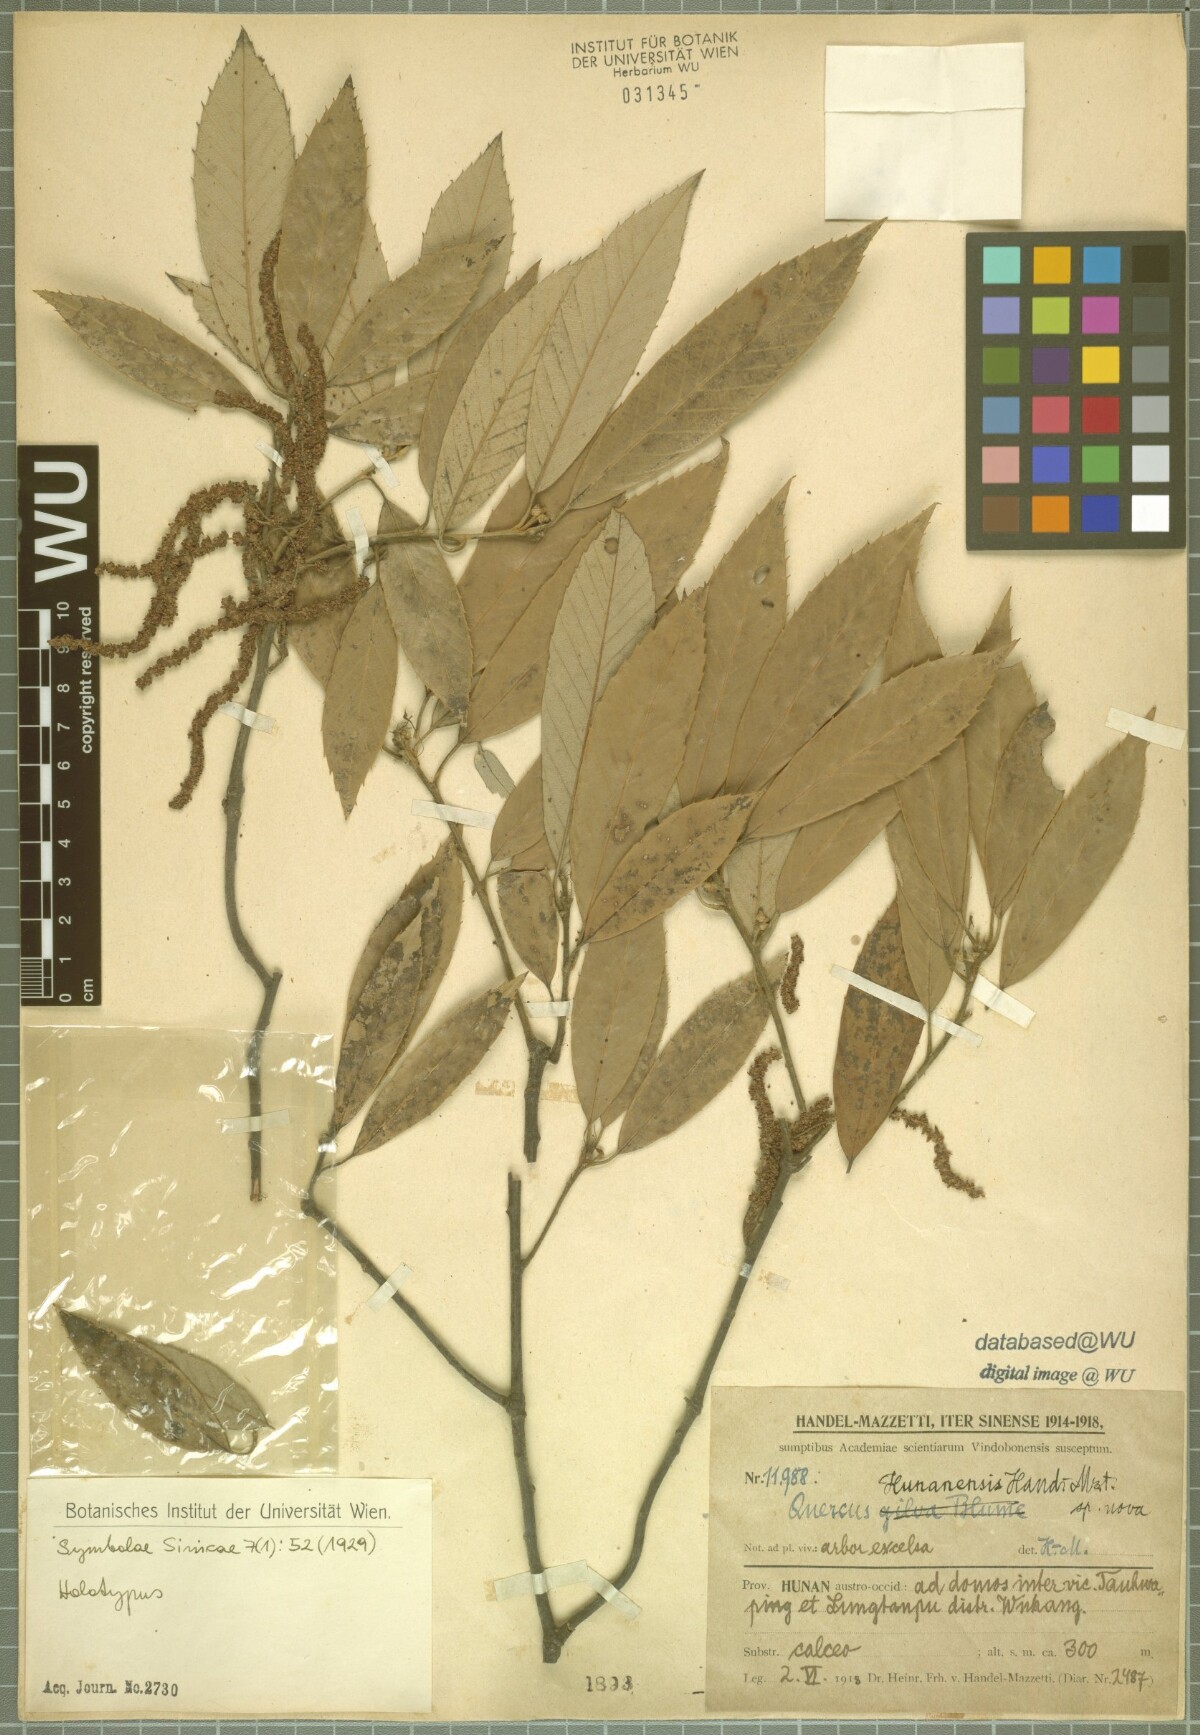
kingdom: Plantae
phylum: Tracheophyta
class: Magnoliopsida
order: Fagales
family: Fagaceae
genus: Quercus
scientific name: Quercus gilva
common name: Redbark oak
